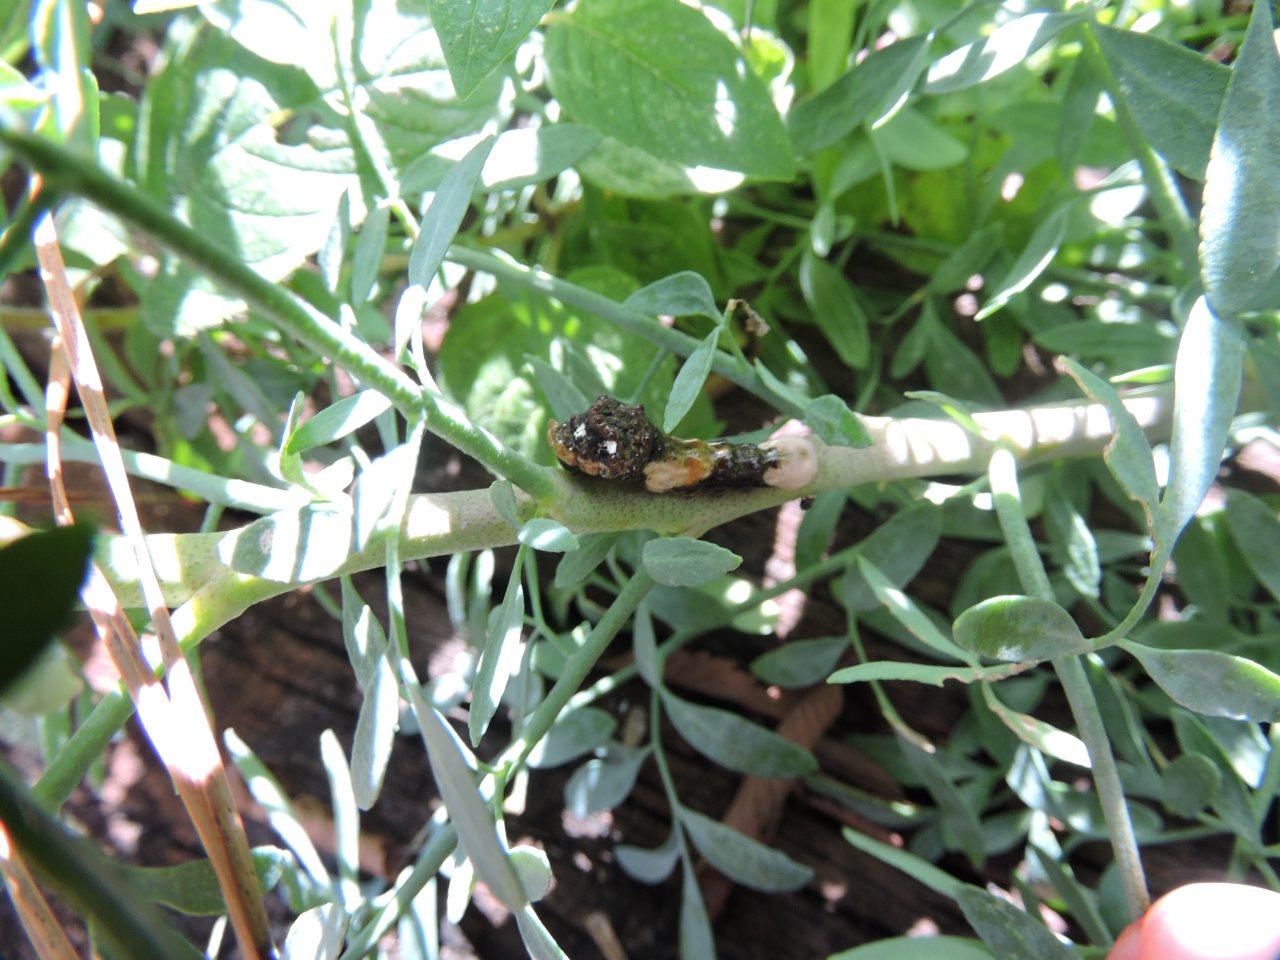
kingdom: Animalia
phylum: Arthropoda
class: Insecta
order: Lepidoptera
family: Papilionidae
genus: Papilio
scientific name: Papilio cresphontes
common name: Eastern Giant Swallowtail
